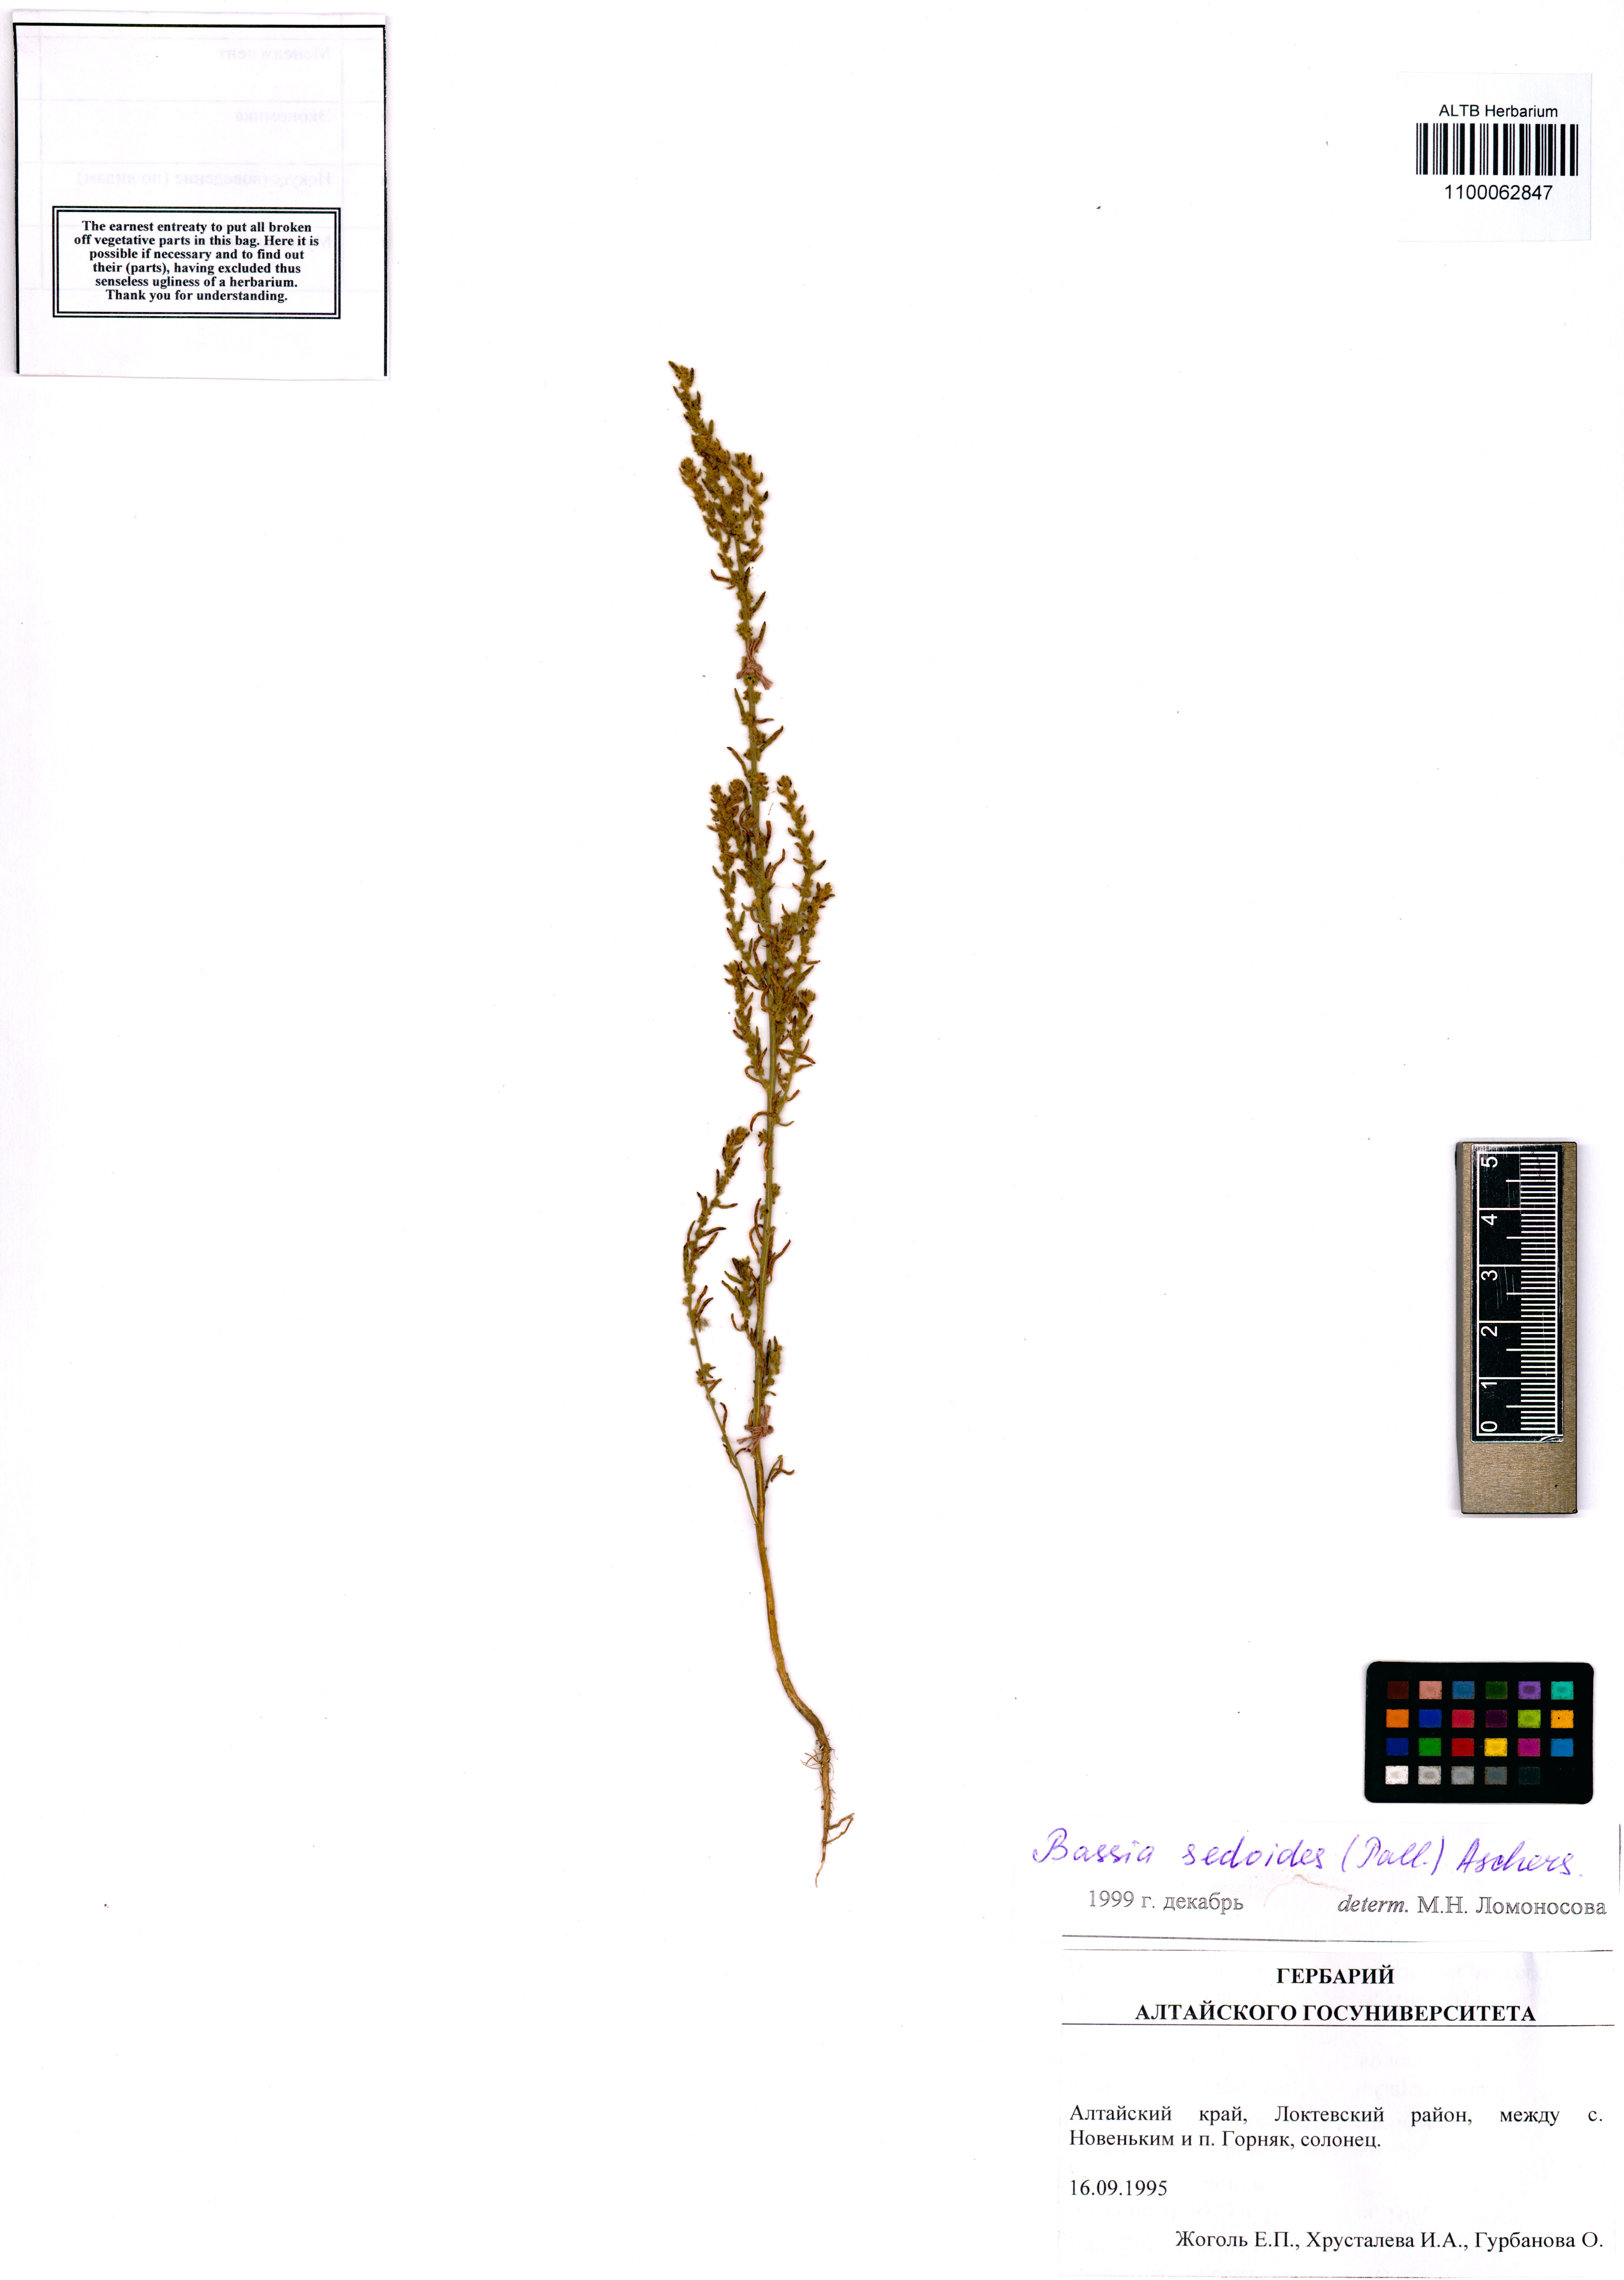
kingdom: Plantae
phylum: Tracheophyta
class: Magnoliopsida
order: Caryophyllales
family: Amaranthaceae
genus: Sedobassia
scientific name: Sedobassia sedoides
